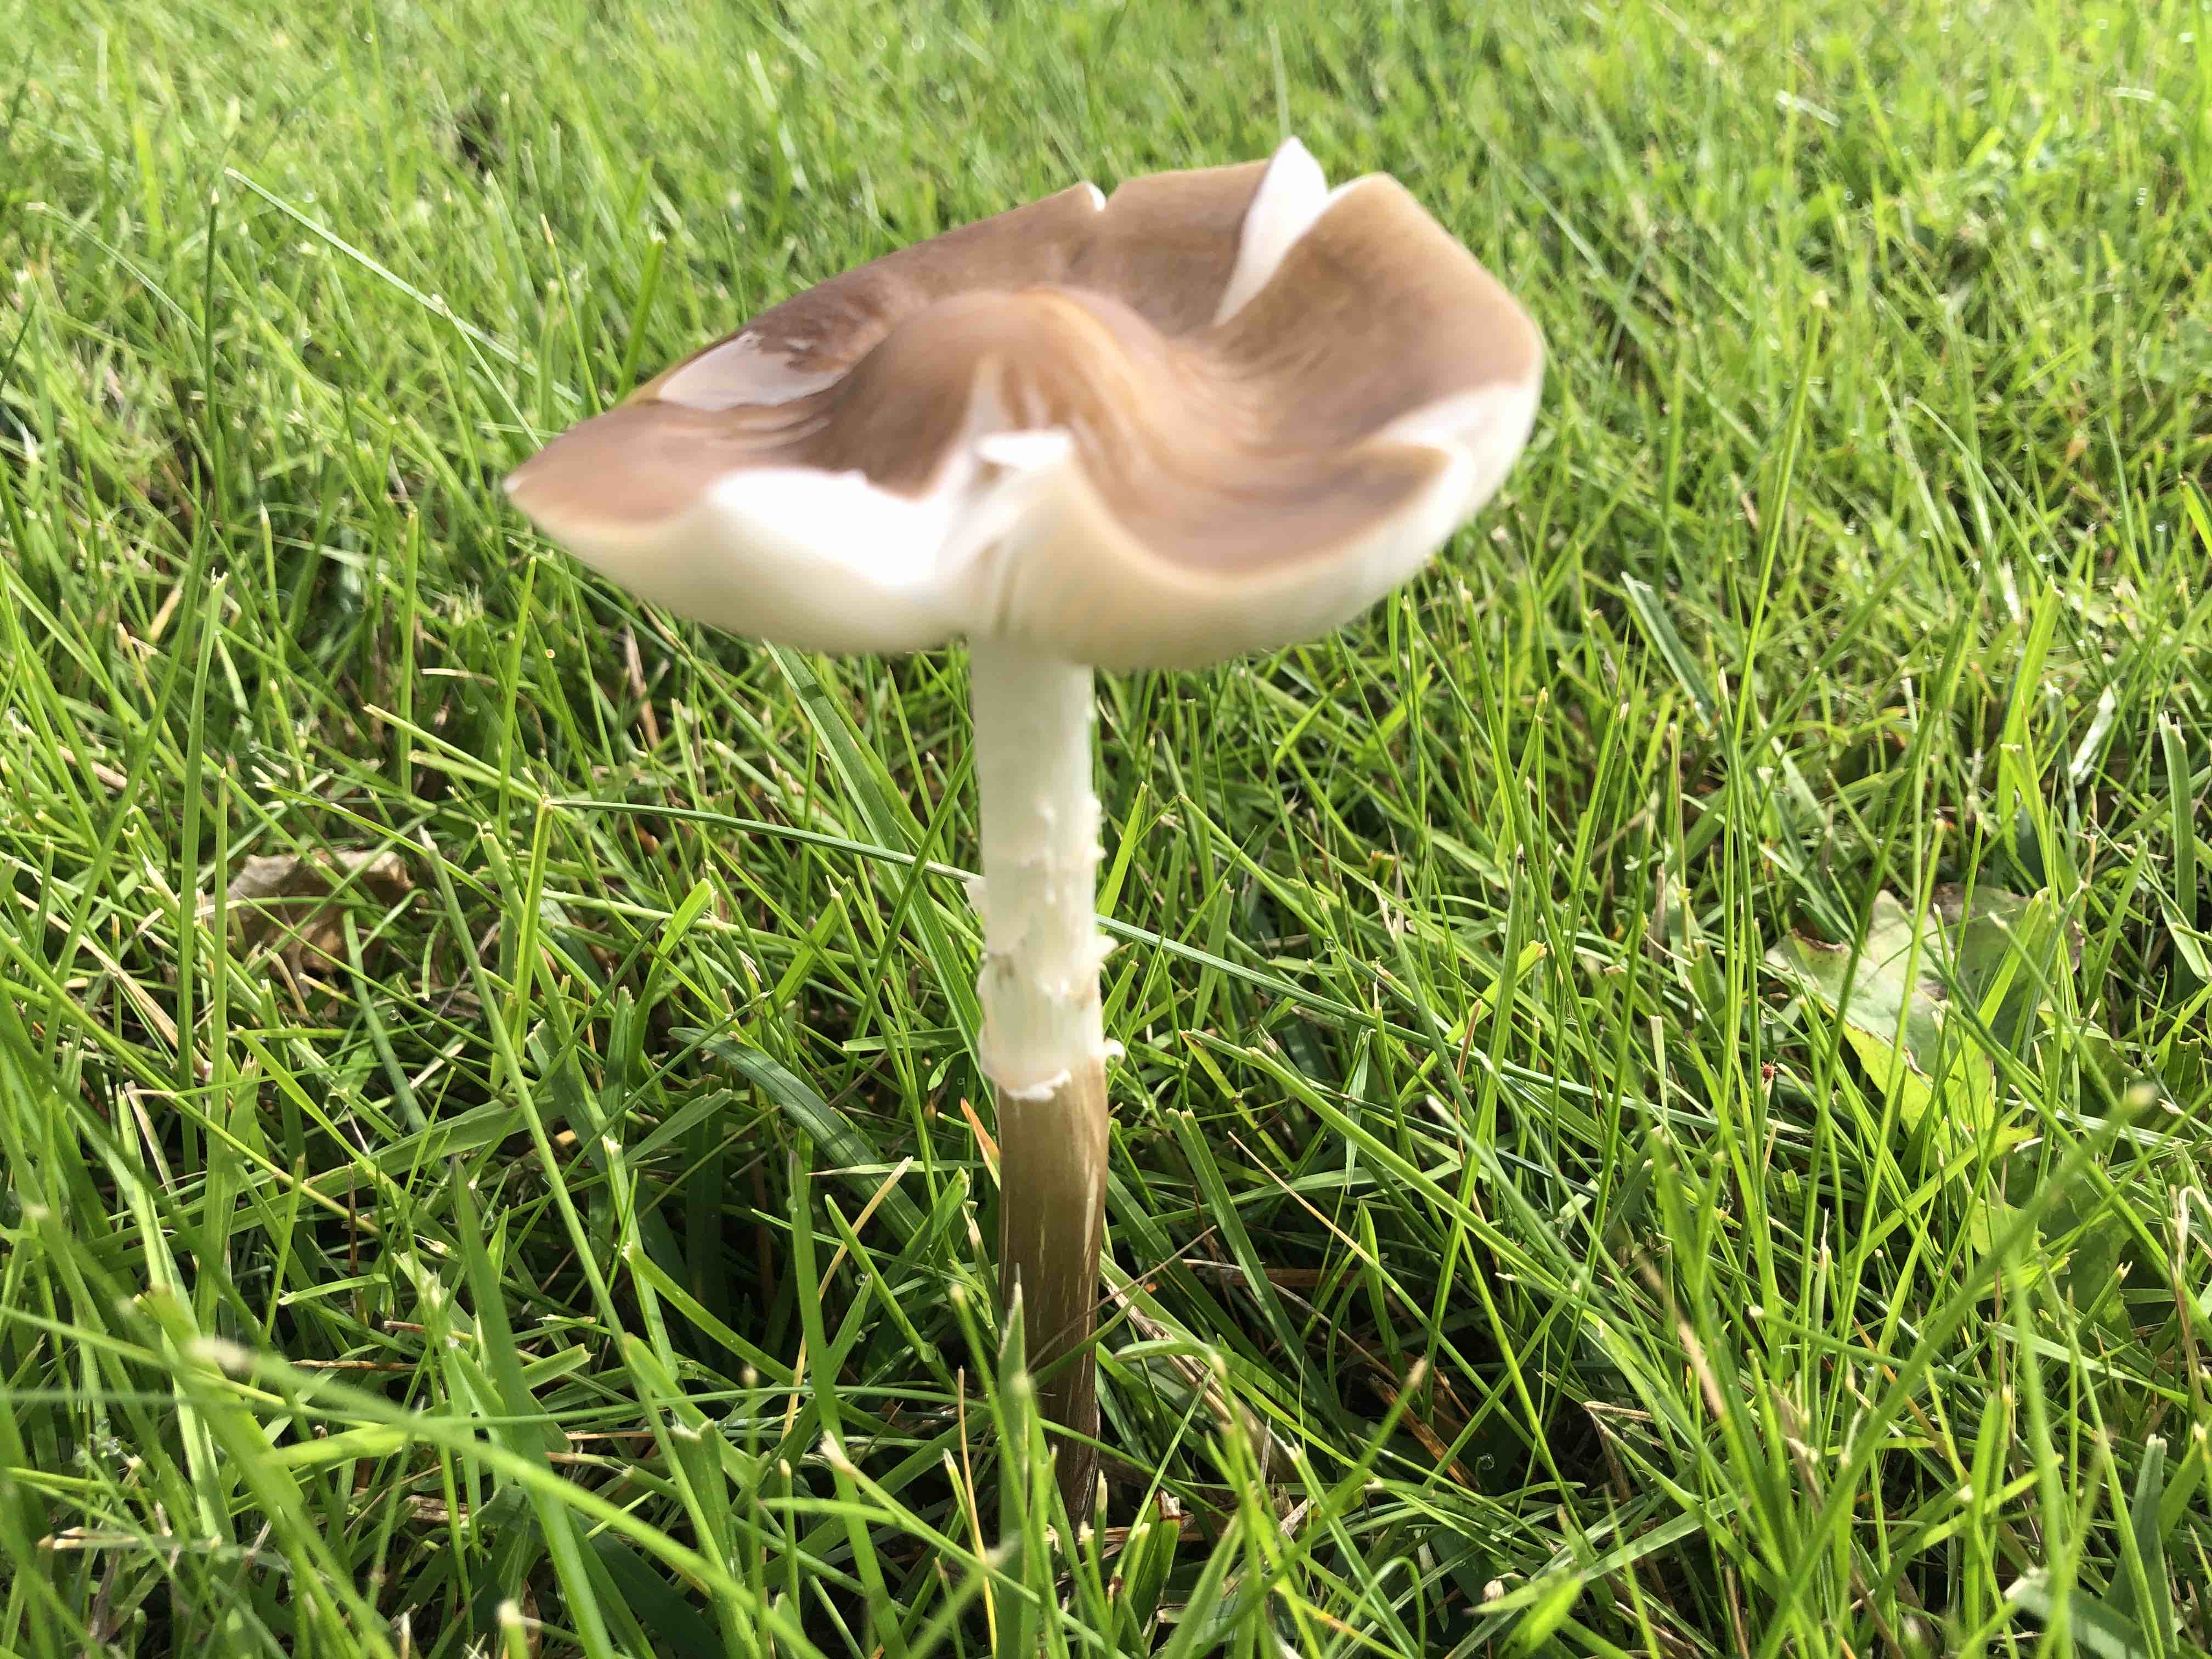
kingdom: Fungi
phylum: Basidiomycota
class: Agaricomycetes
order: Agaricales
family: Physalacriaceae
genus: Hymenopellis
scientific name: Hymenopellis radicata
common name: almindelig pælerodshat
